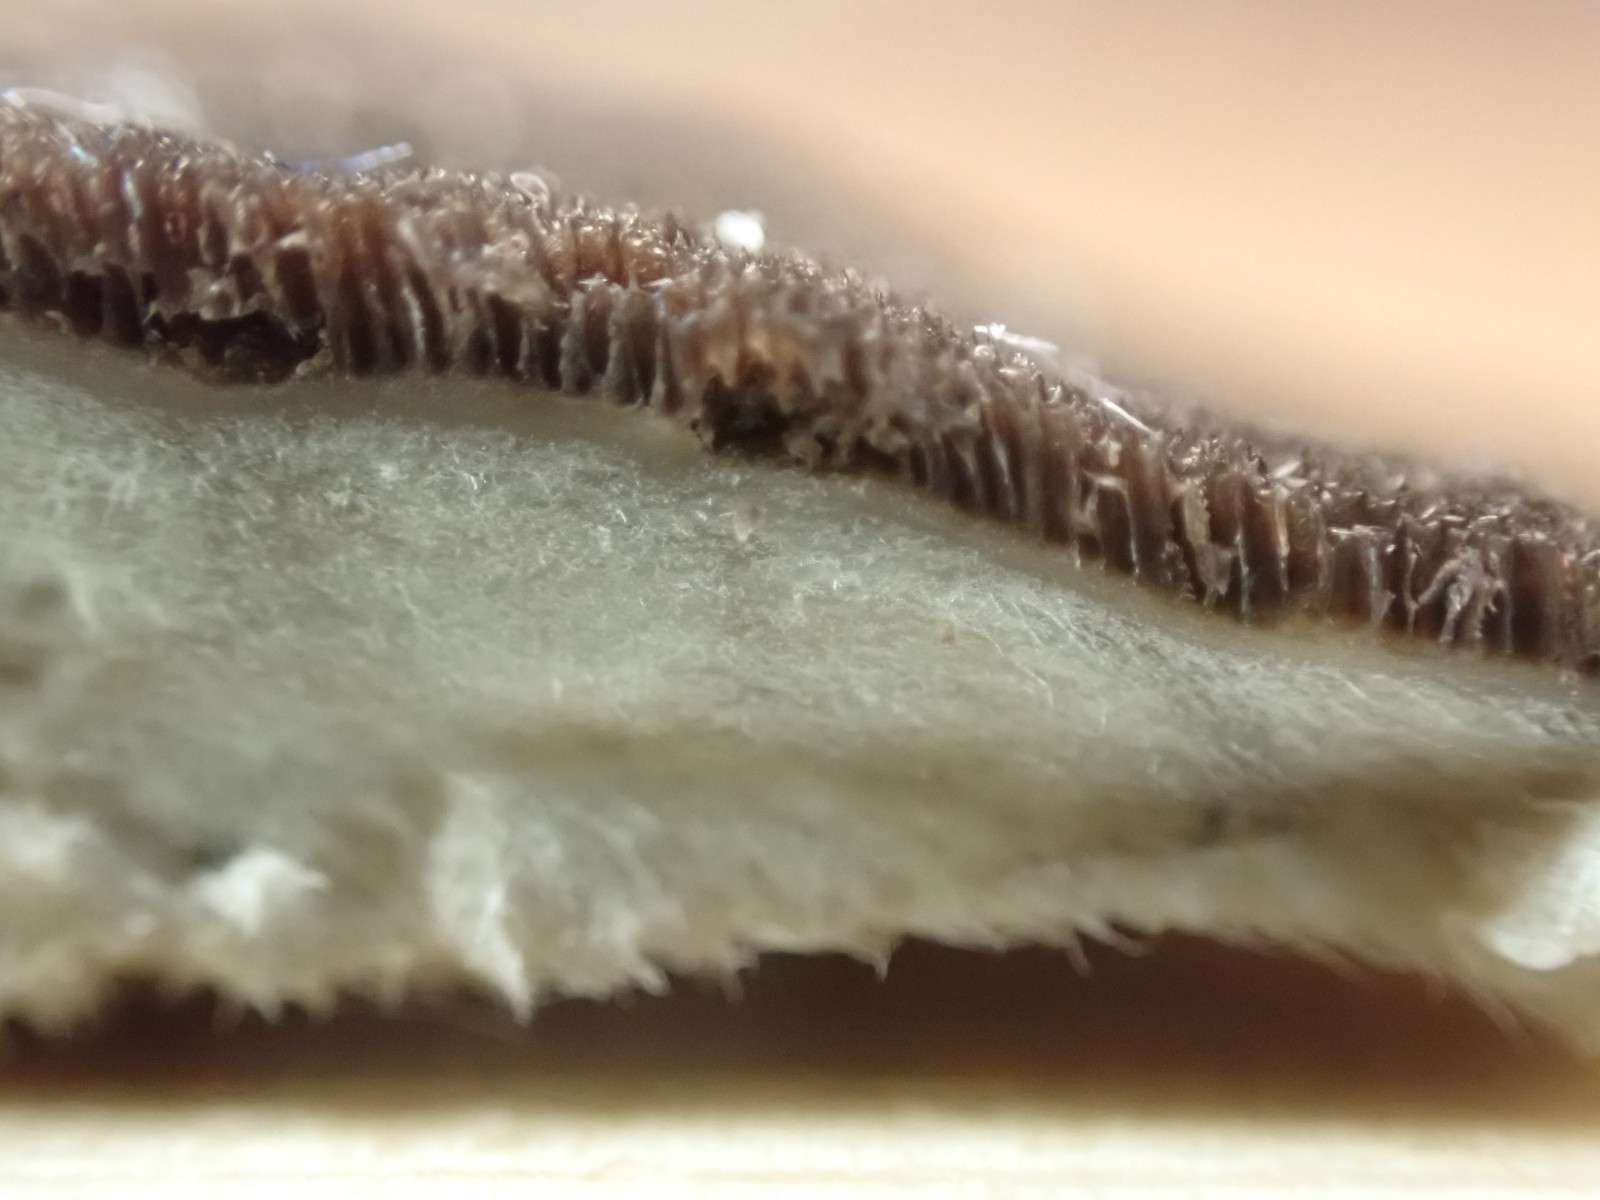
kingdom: Fungi
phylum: Basidiomycota
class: Agaricomycetes
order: Polyporales
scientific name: Polyporales
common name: poresvampordenen
